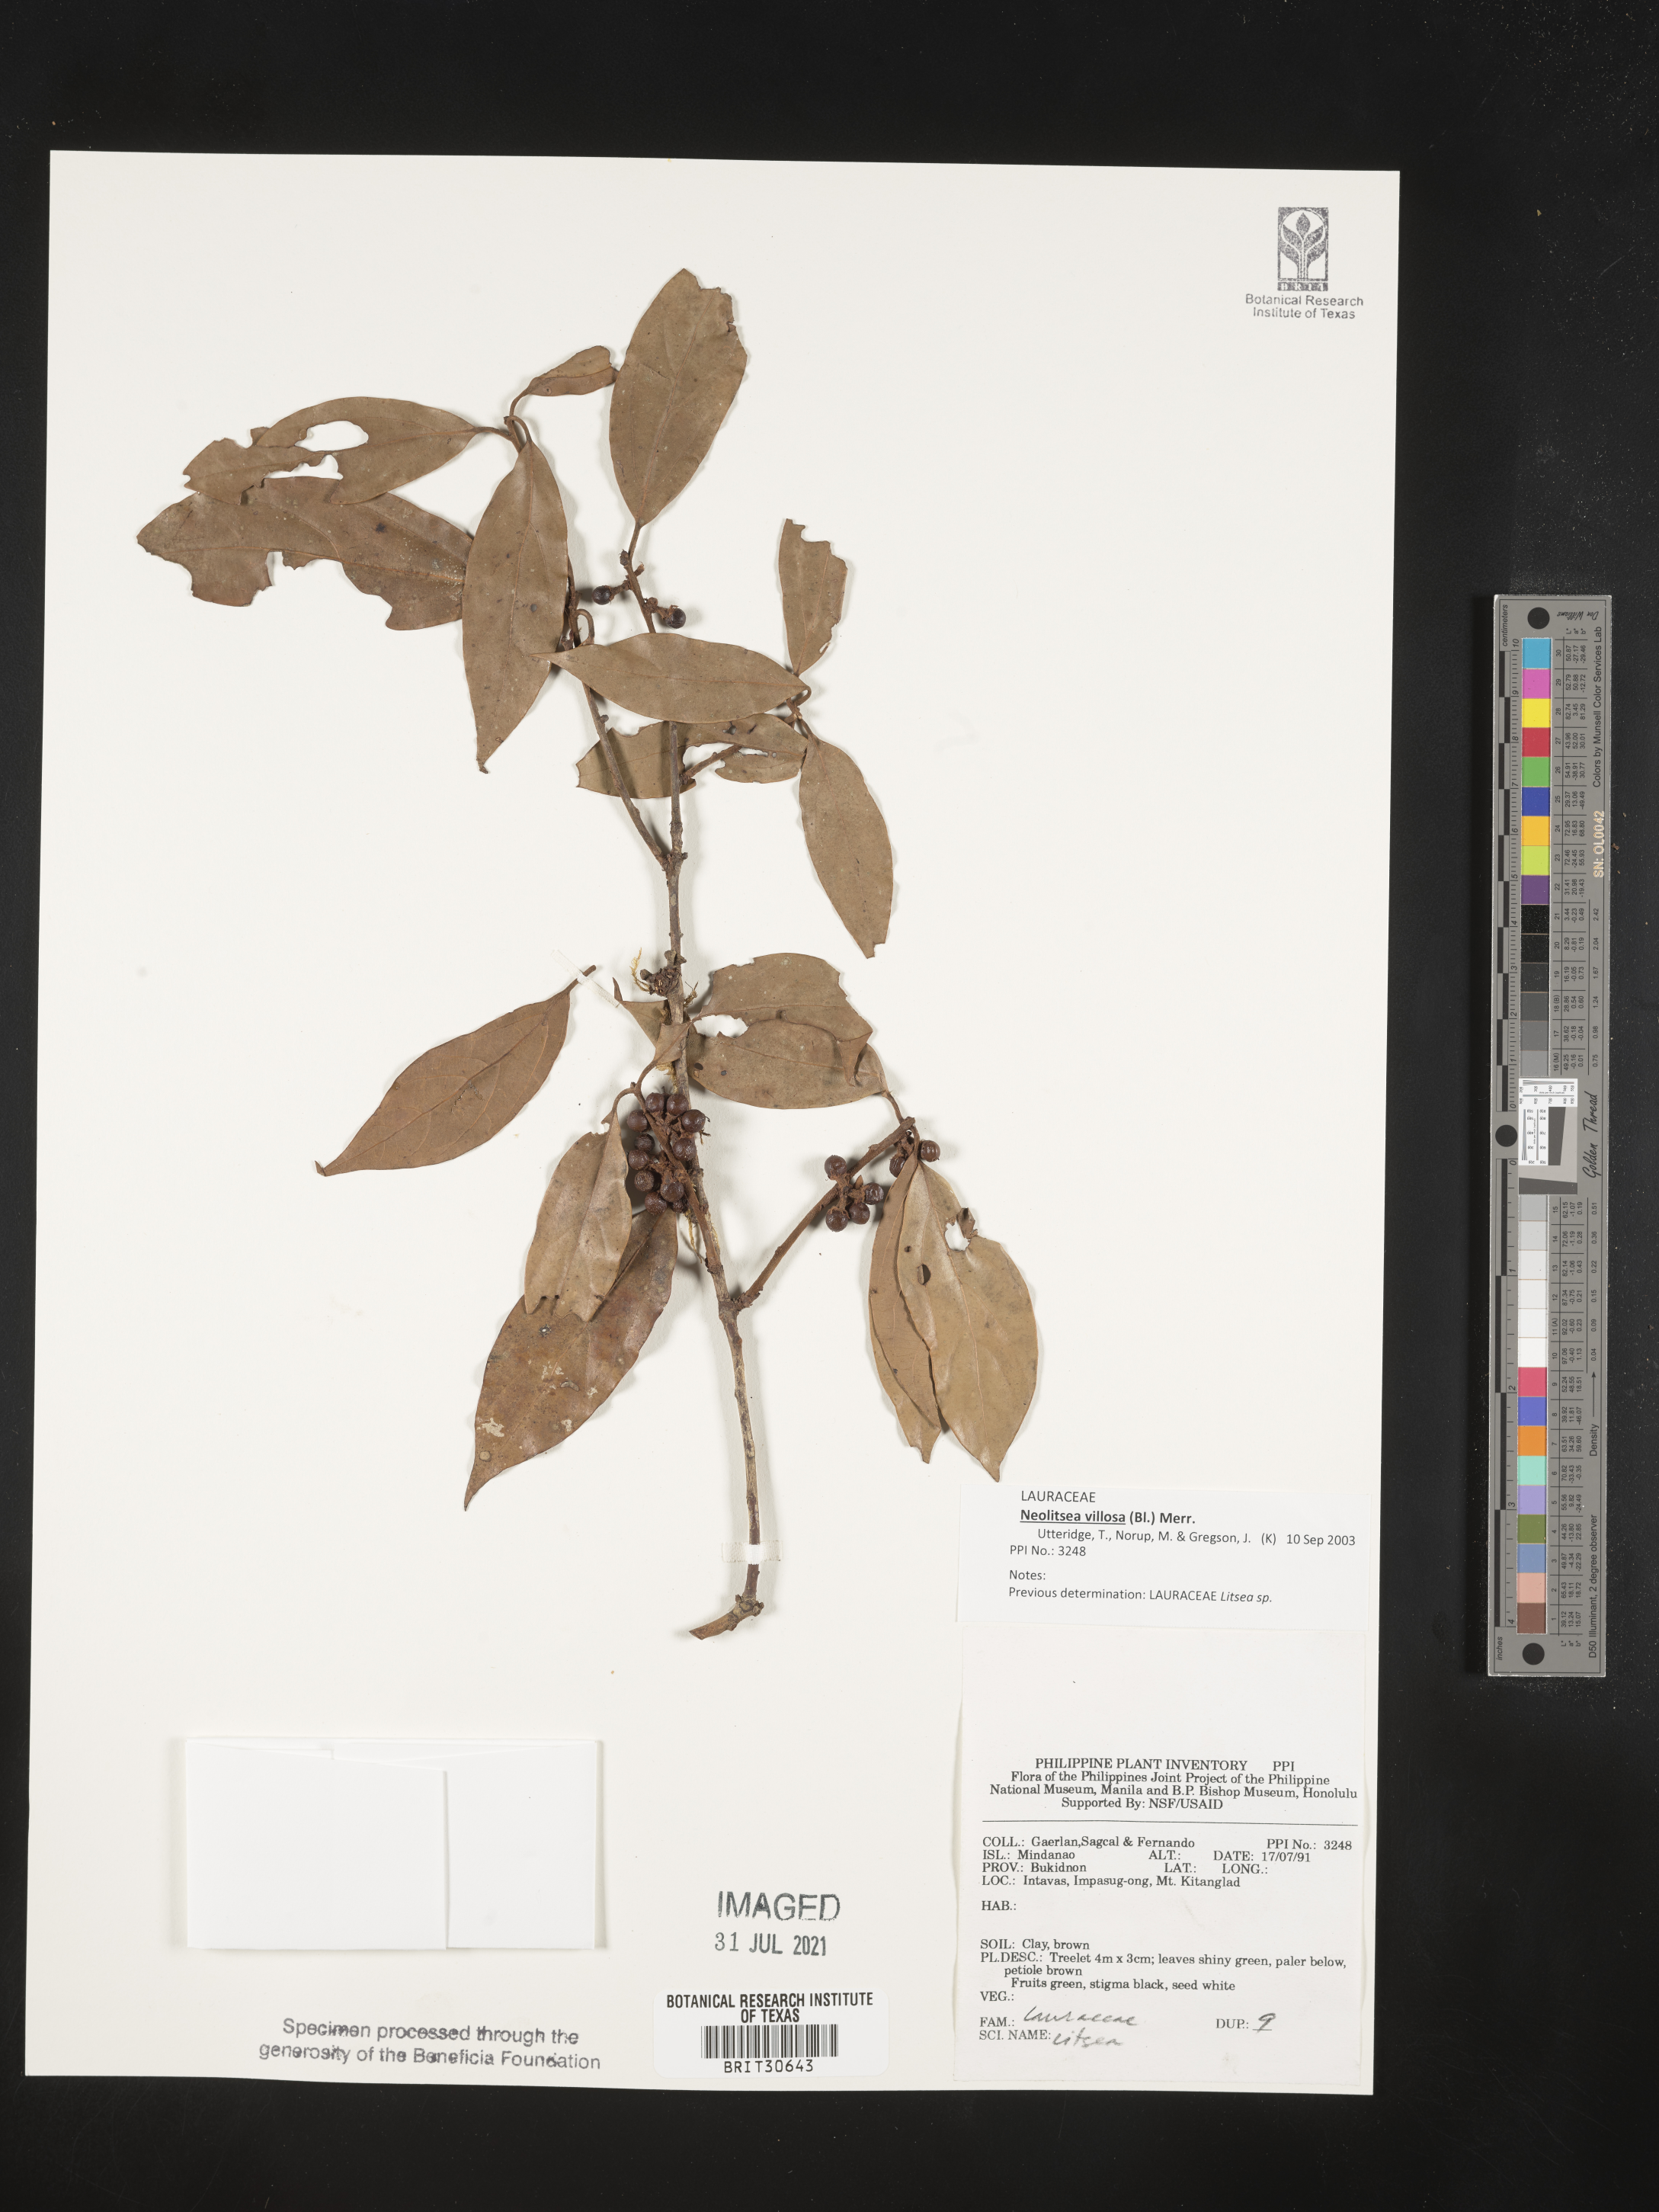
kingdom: Plantae
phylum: Tracheophyta
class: Magnoliopsida
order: Laurales
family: Lauraceae
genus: Litsea
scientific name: Litsea
